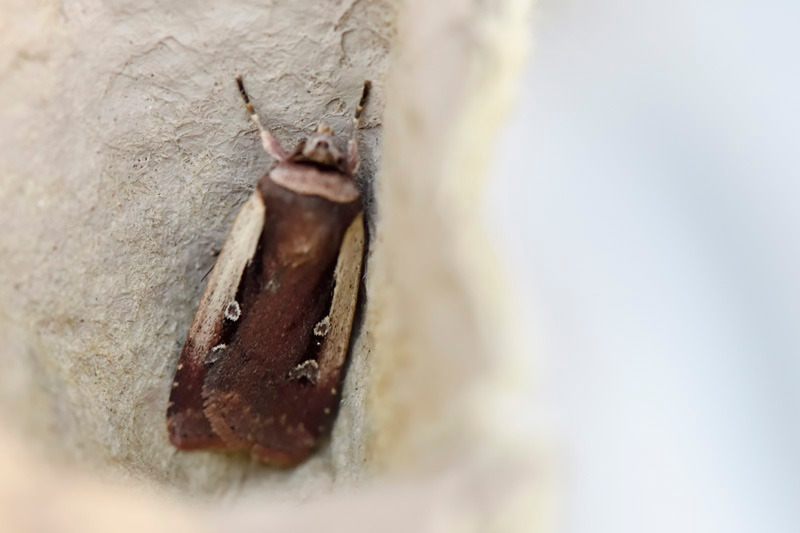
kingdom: Animalia
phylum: Arthropoda
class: Insecta
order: Lepidoptera
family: Noctuidae
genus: Ochropleura
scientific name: Ochropleura plecta
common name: Hvidrandet jordugle
